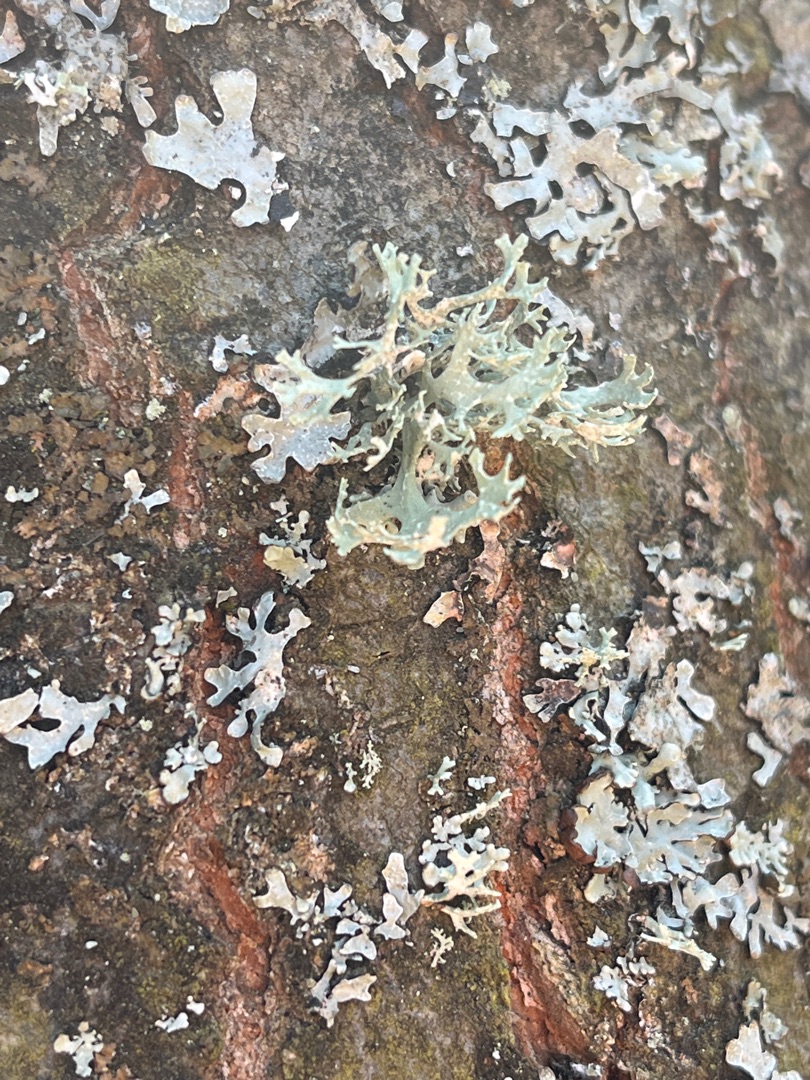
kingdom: Fungi
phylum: Ascomycota
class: Lecanoromycetes
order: Lecanorales
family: Parmeliaceae
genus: Evernia
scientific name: Evernia prunastri
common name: Almindelig slåenlav
